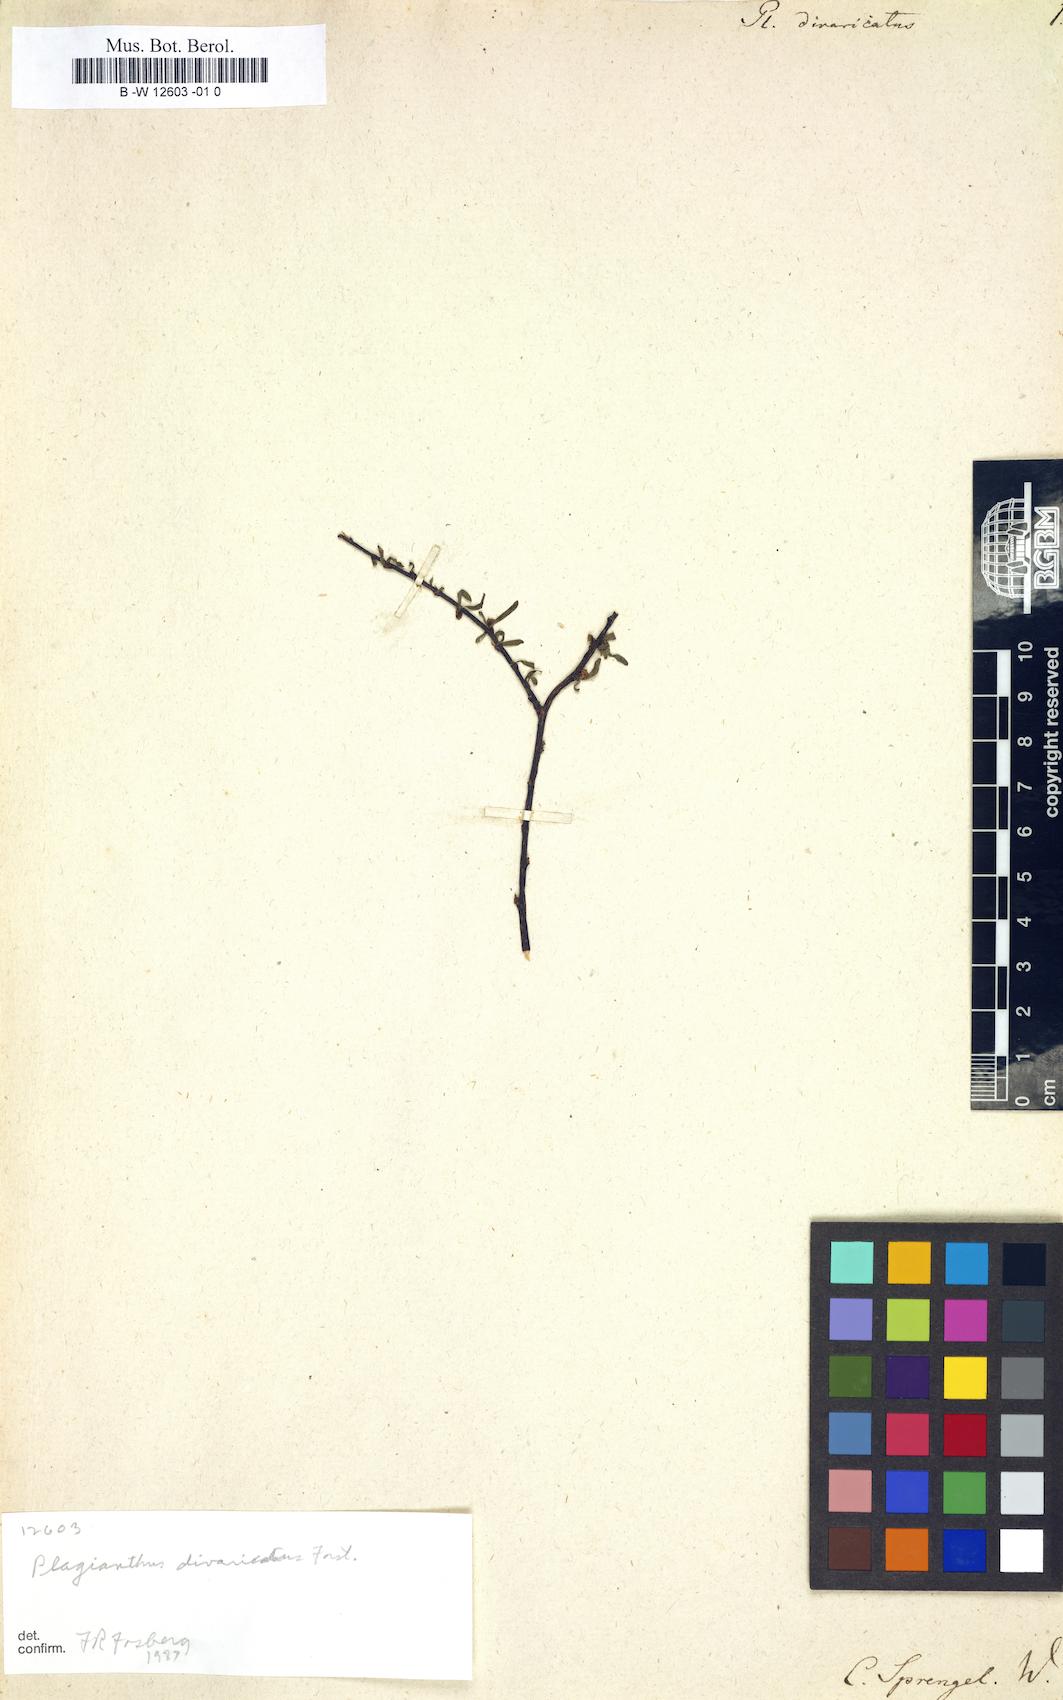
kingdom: Plantae
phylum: Tracheophyta
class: Magnoliopsida
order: Malvales
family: Malvaceae
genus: Plagianthus
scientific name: Plagianthus divaricatus
